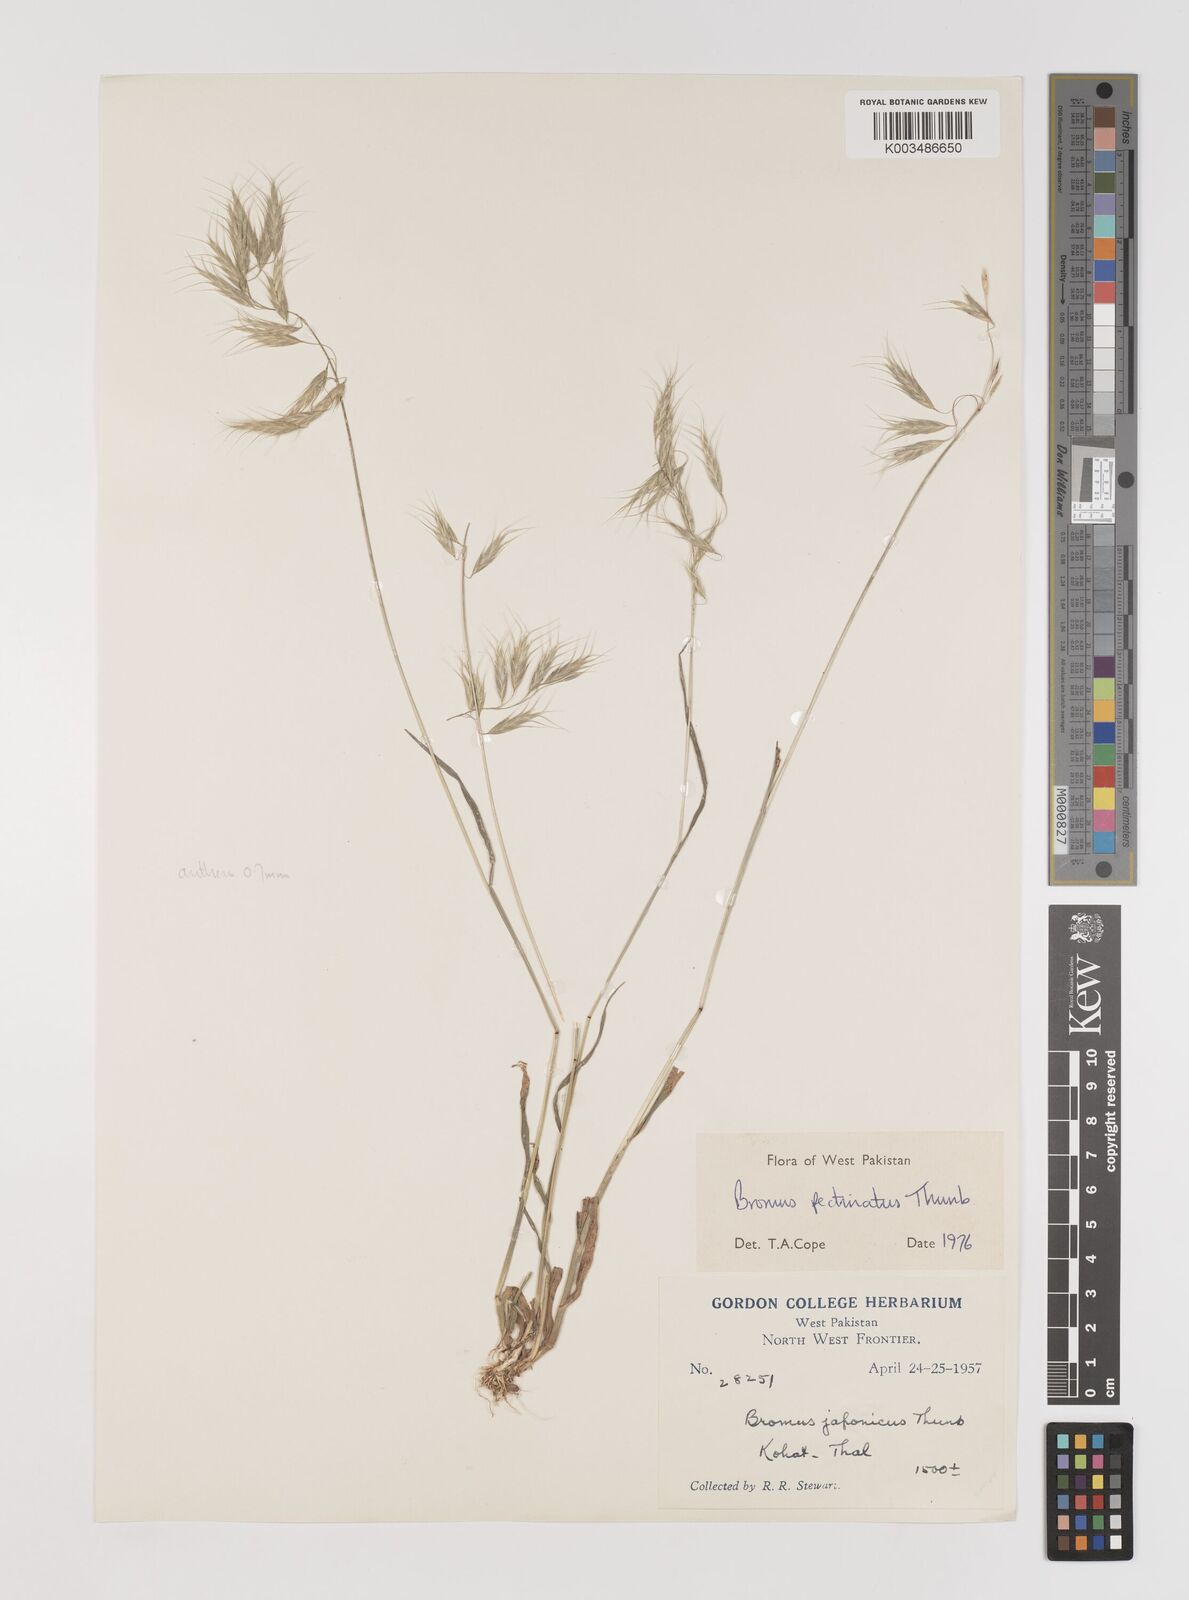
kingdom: Plantae
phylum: Tracheophyta
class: Liliopsida
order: Poales
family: Poaceae
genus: Bromus
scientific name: Bromus pectinatus
